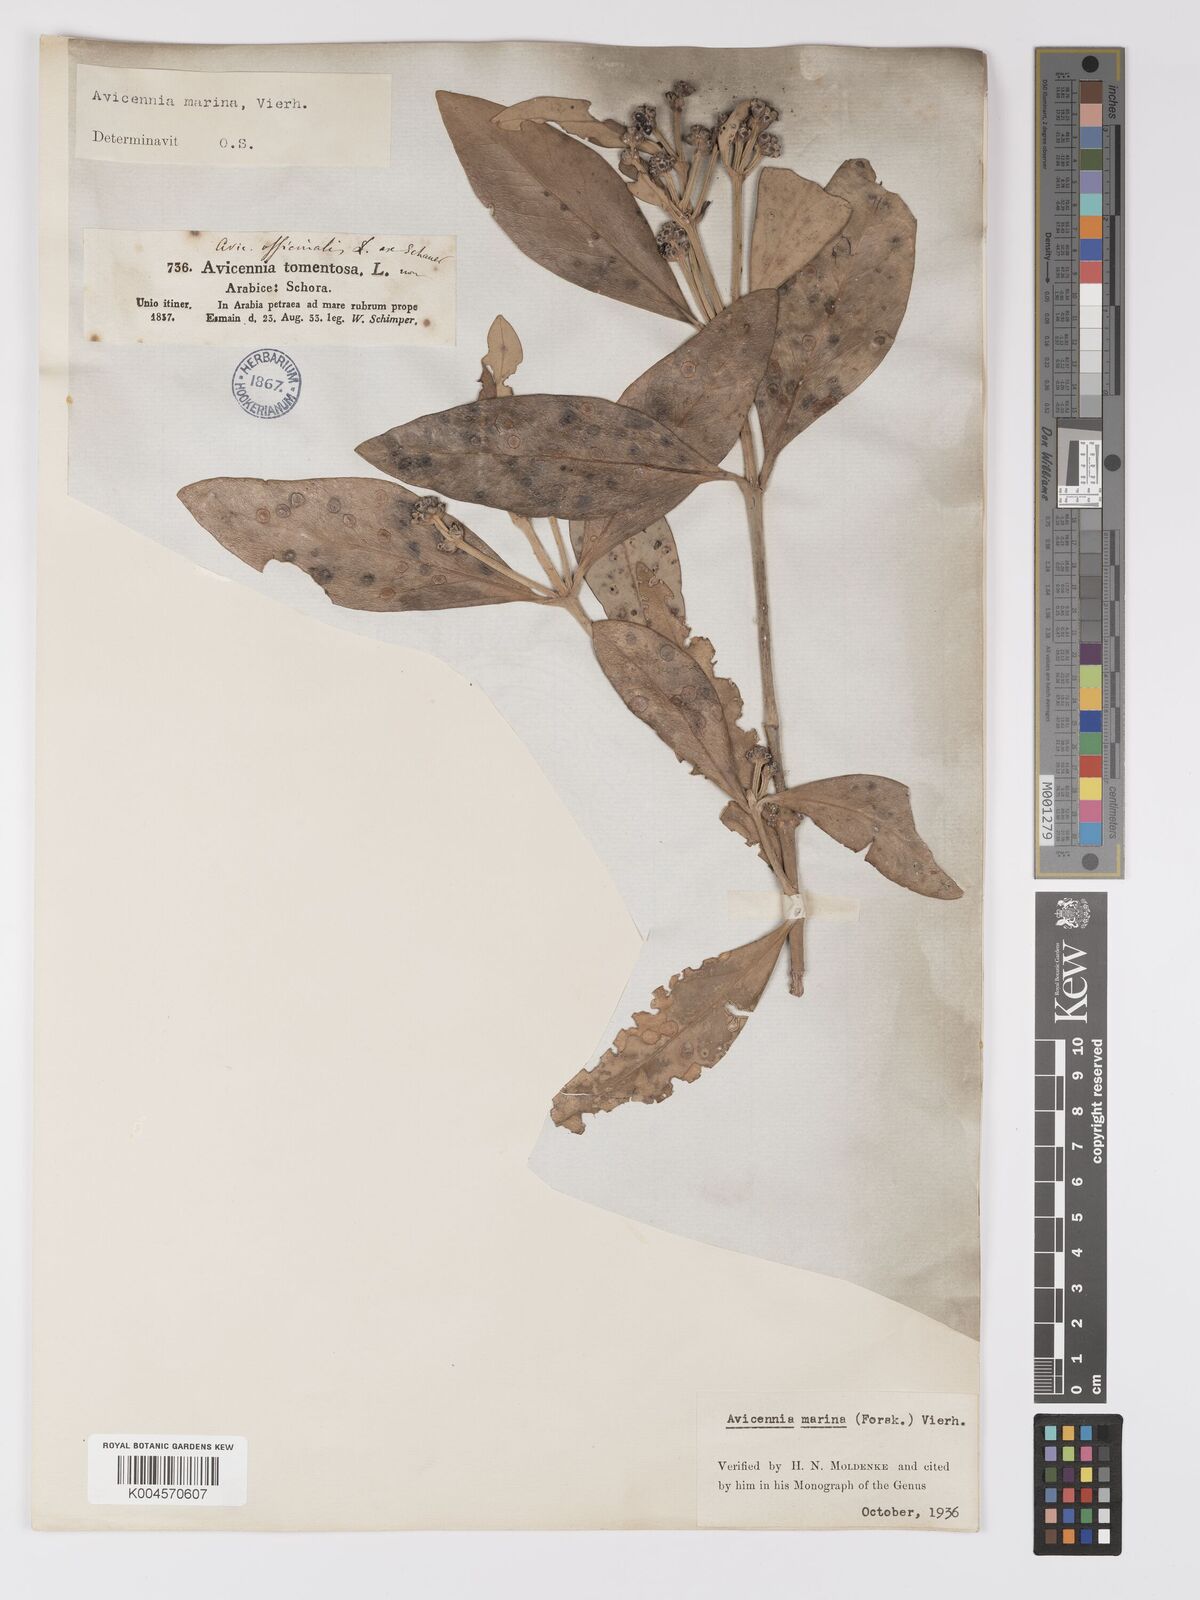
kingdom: Plantae
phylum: Tracheophyta
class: Magnoliopsida
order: Lamiales
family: Acanthaceae
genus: Avicennia
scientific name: Avicennia marina
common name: Gray mangrove
